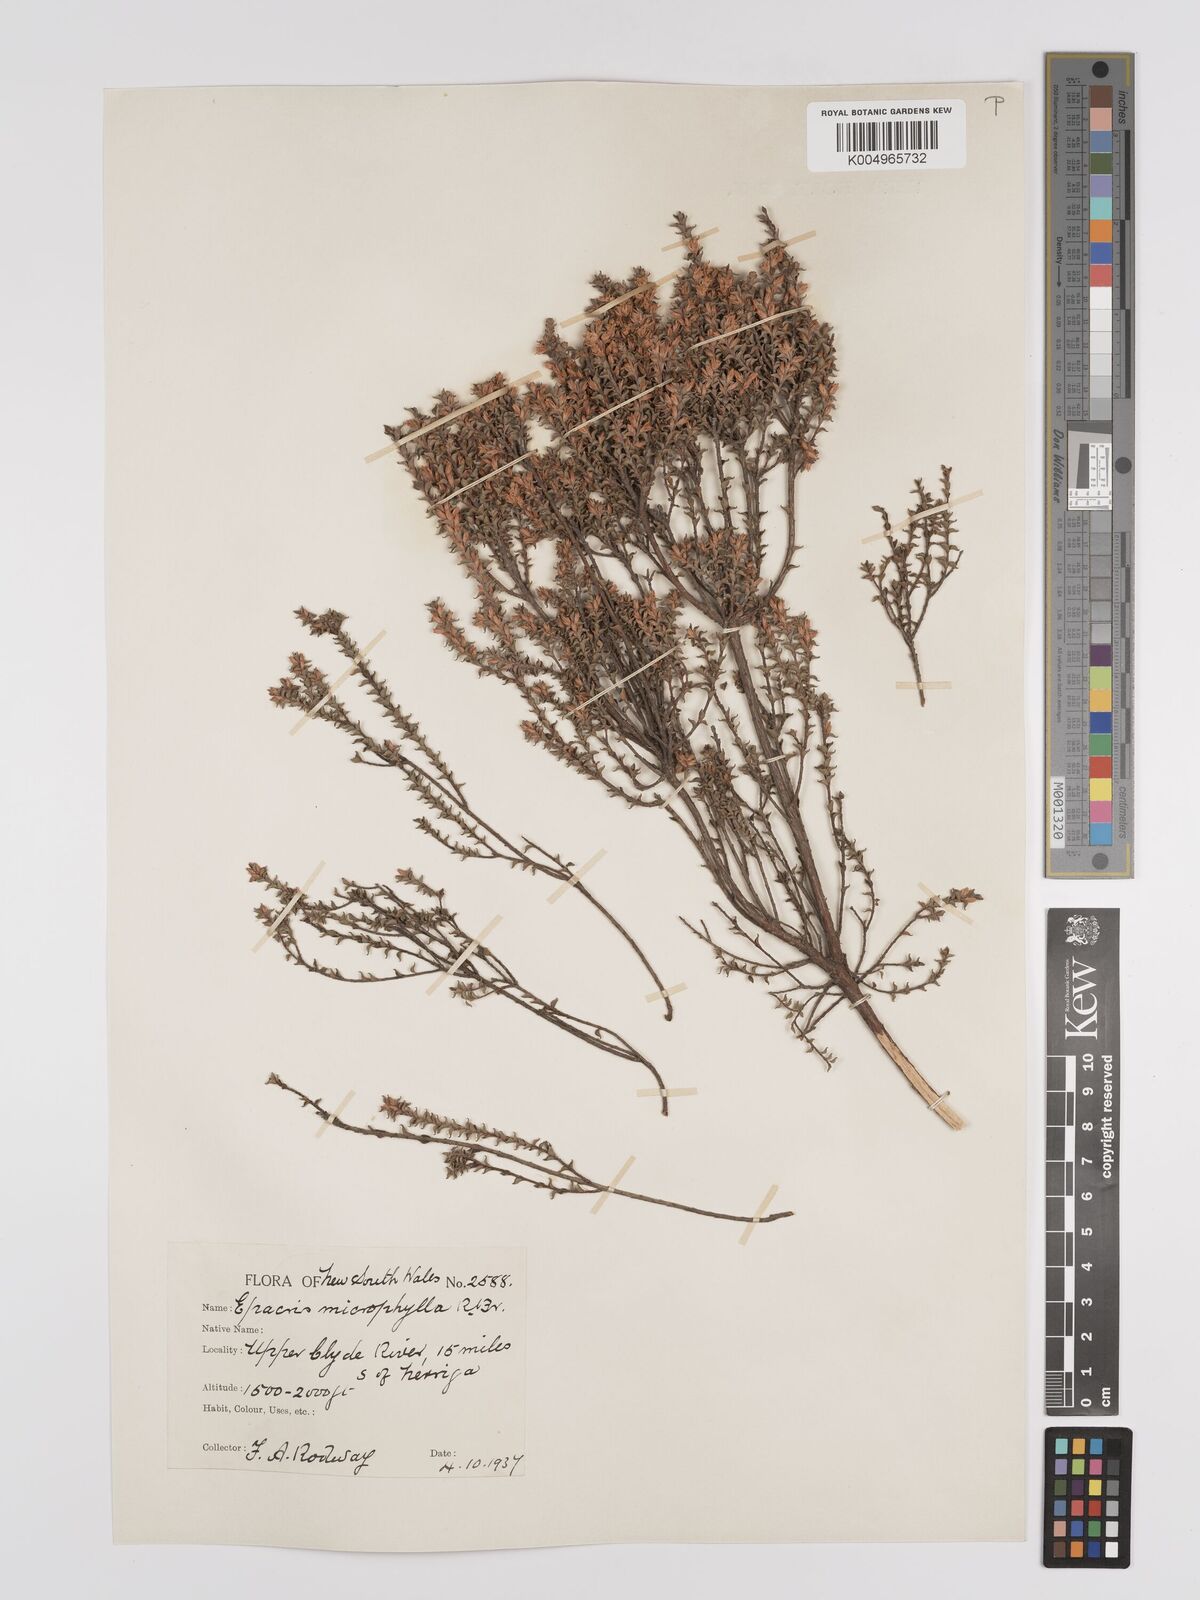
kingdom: Plantae
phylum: Tracheophyta
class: Magnoliopsida
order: Ericales
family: Ericaceae
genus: Epacris
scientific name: Epacris
